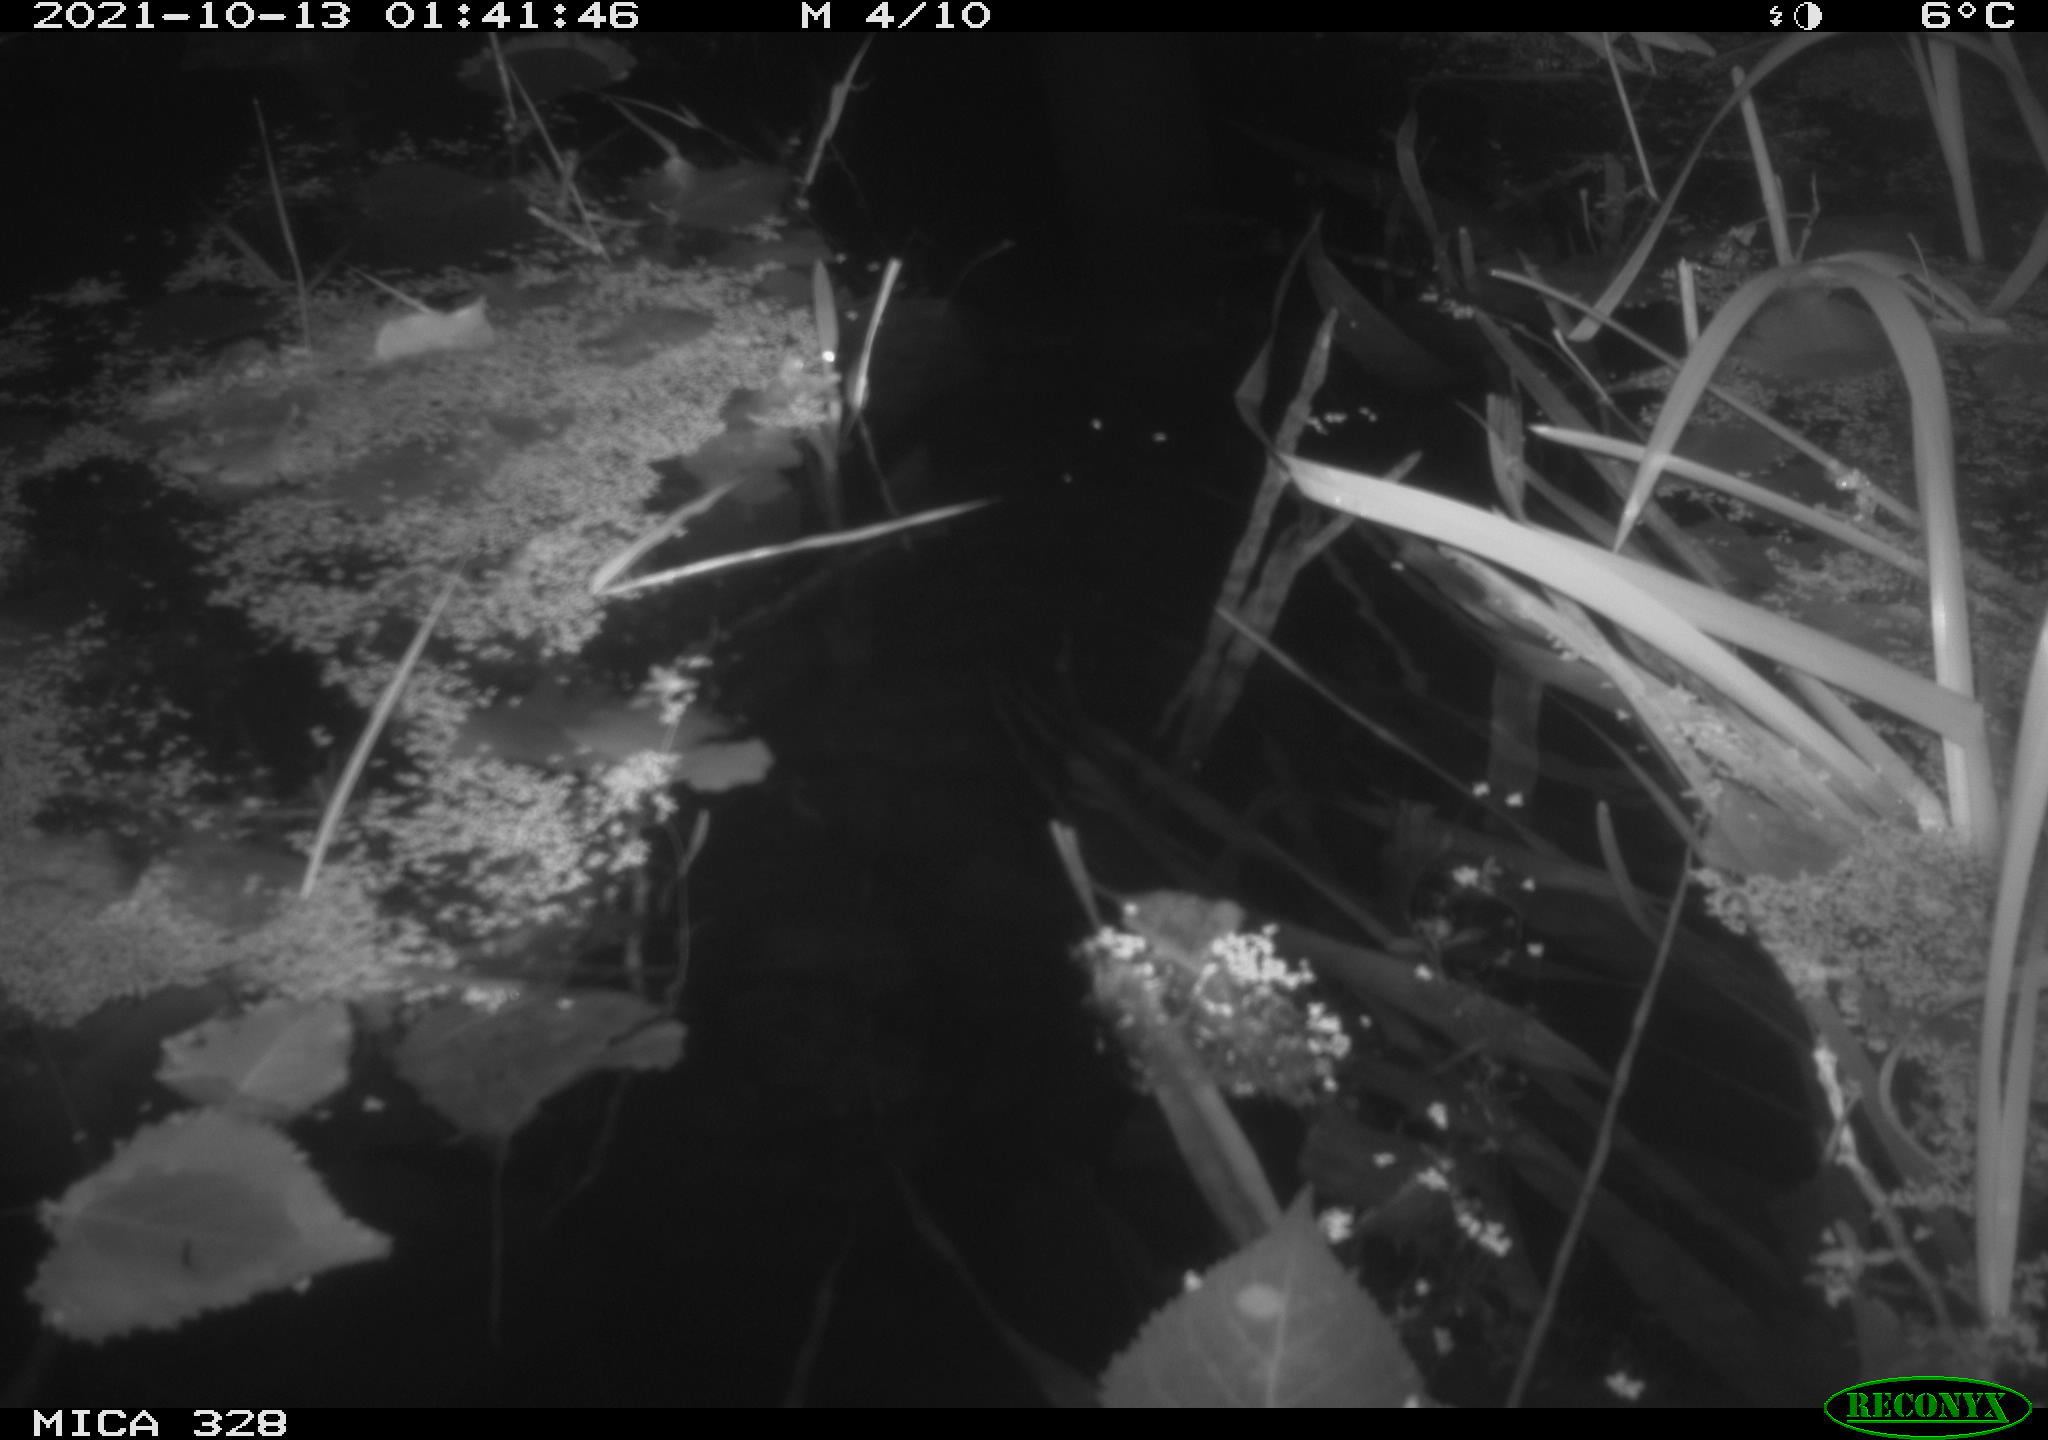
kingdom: Animalia
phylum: Chordata
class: Mammalia
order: Rodentia
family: Cricetidae
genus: Ondatra
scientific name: Ondatra zibethicus
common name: Muskrat
